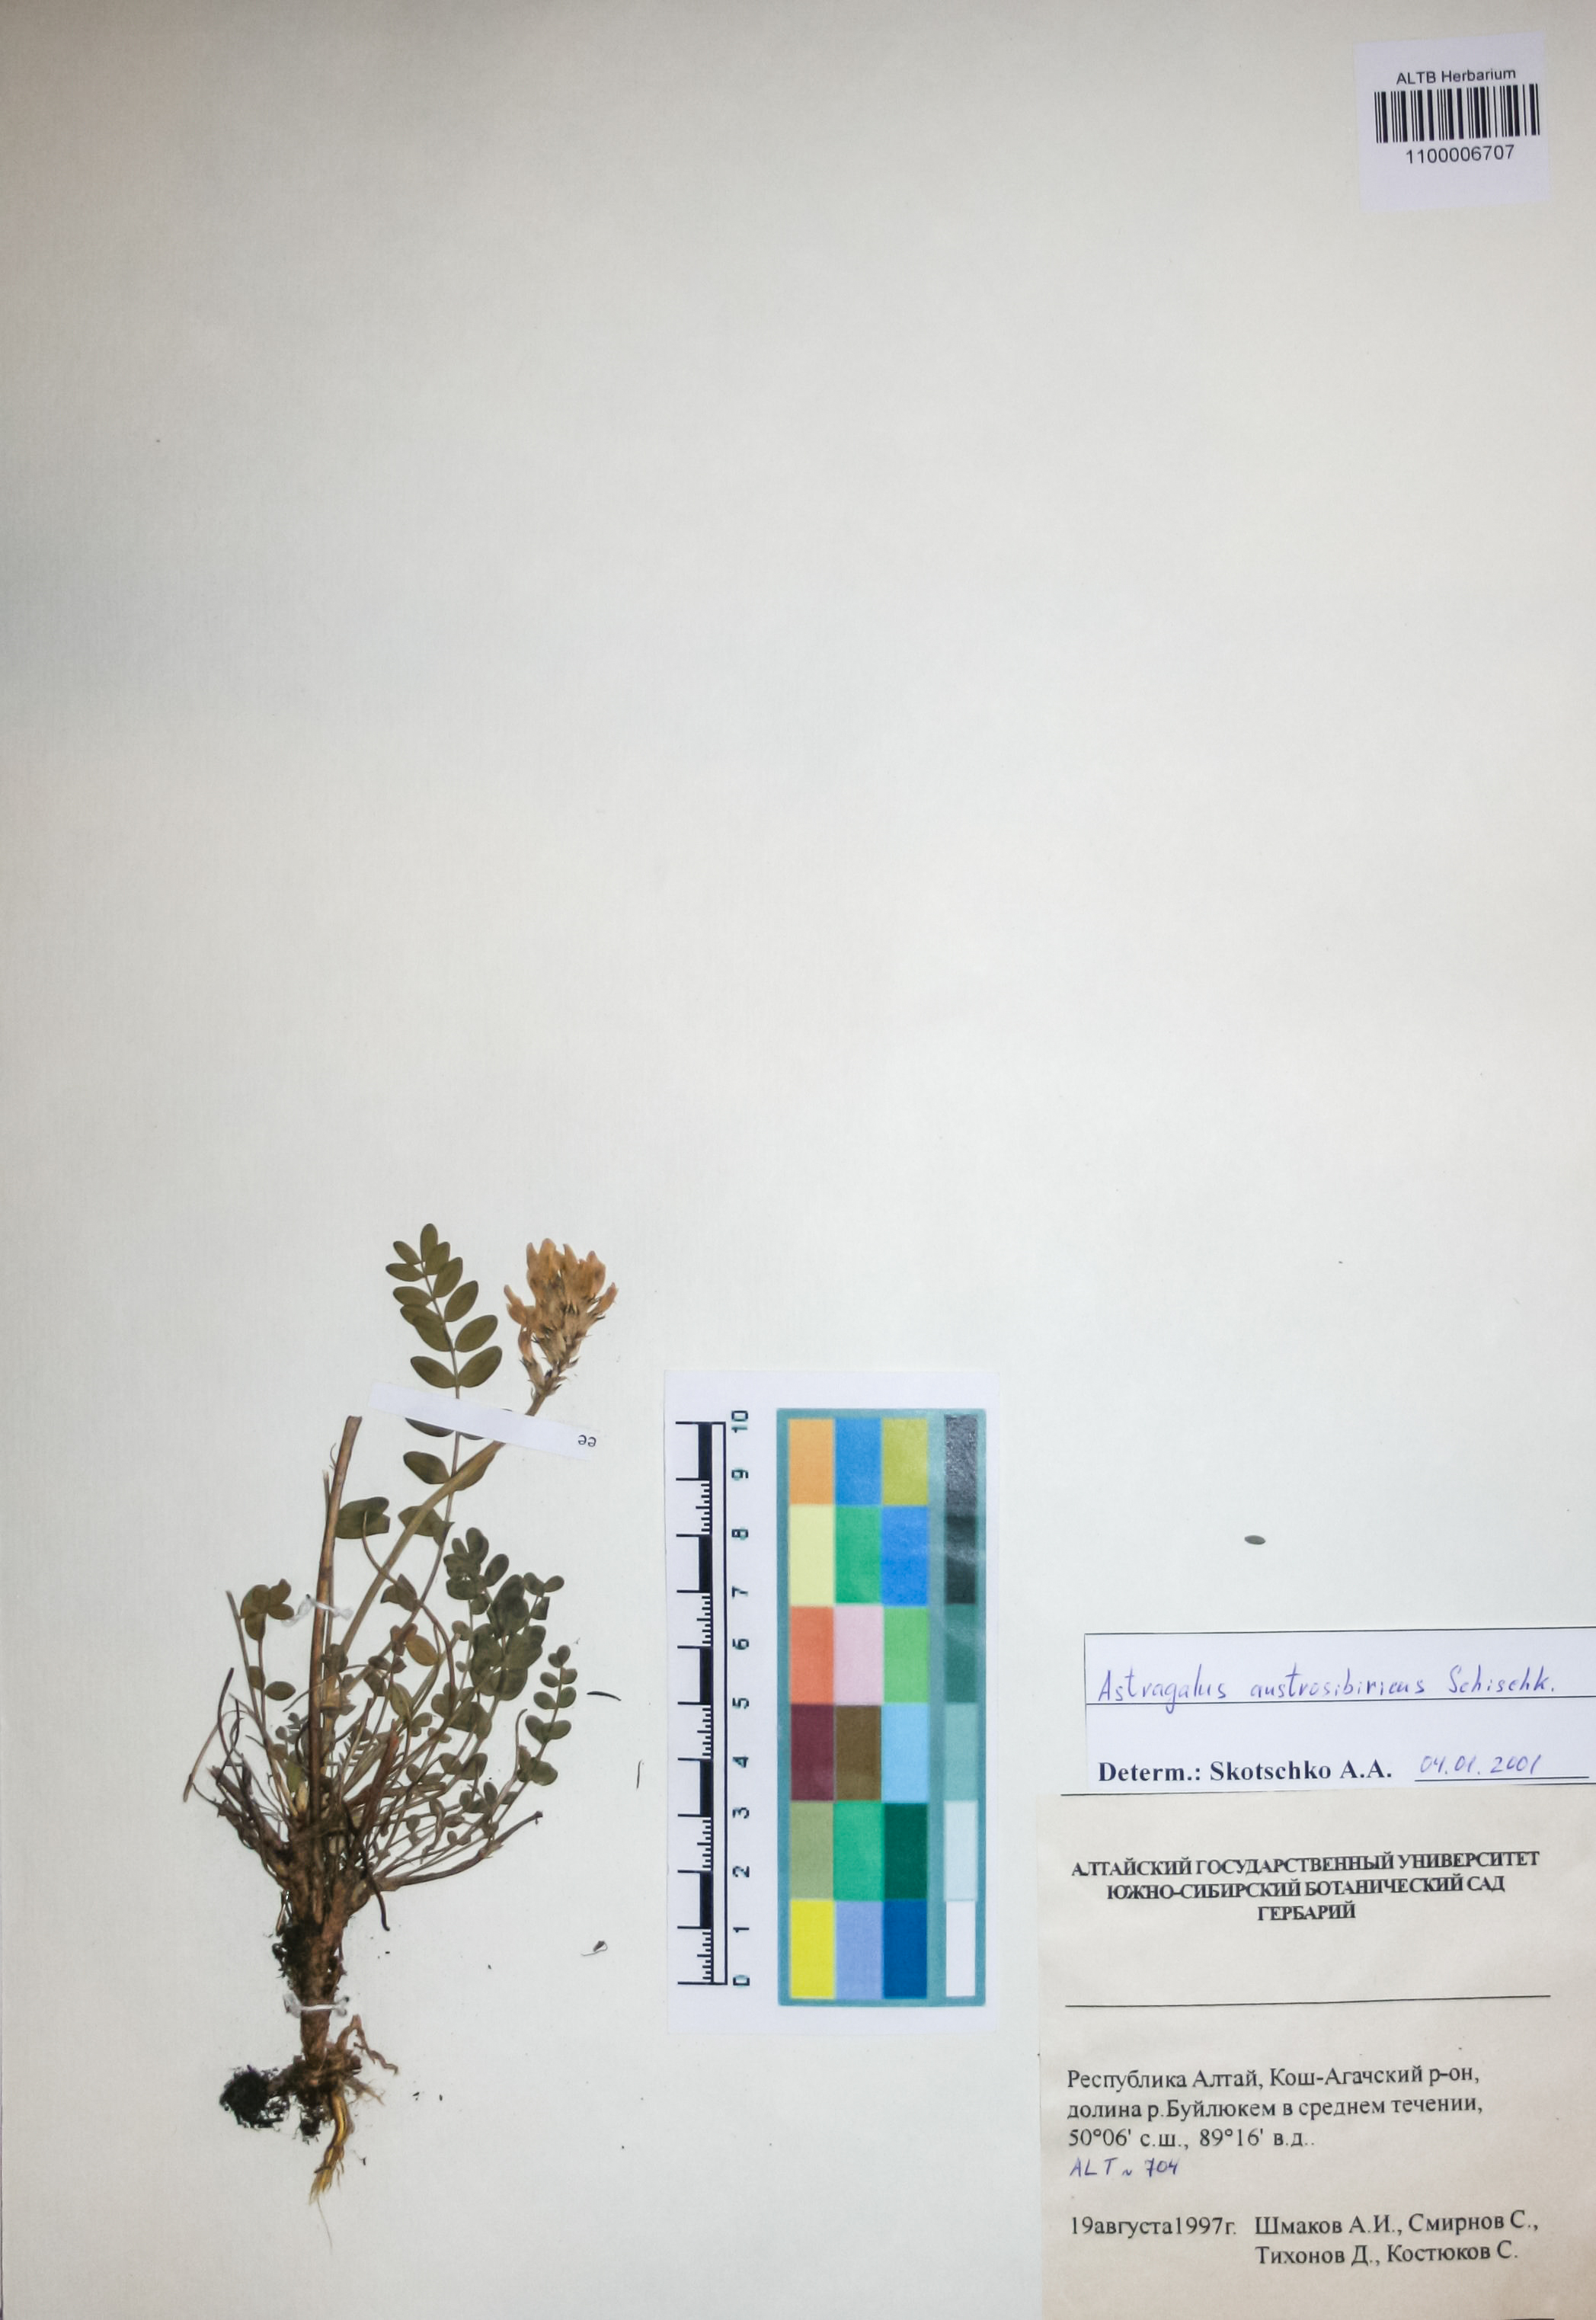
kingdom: Plantae
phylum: Tracheophyta
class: Magnoliopsida
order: Fabales
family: Fabaceae
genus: Astragalus
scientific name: Astragalus laxmannii
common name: Laxmann's milk-vetch
